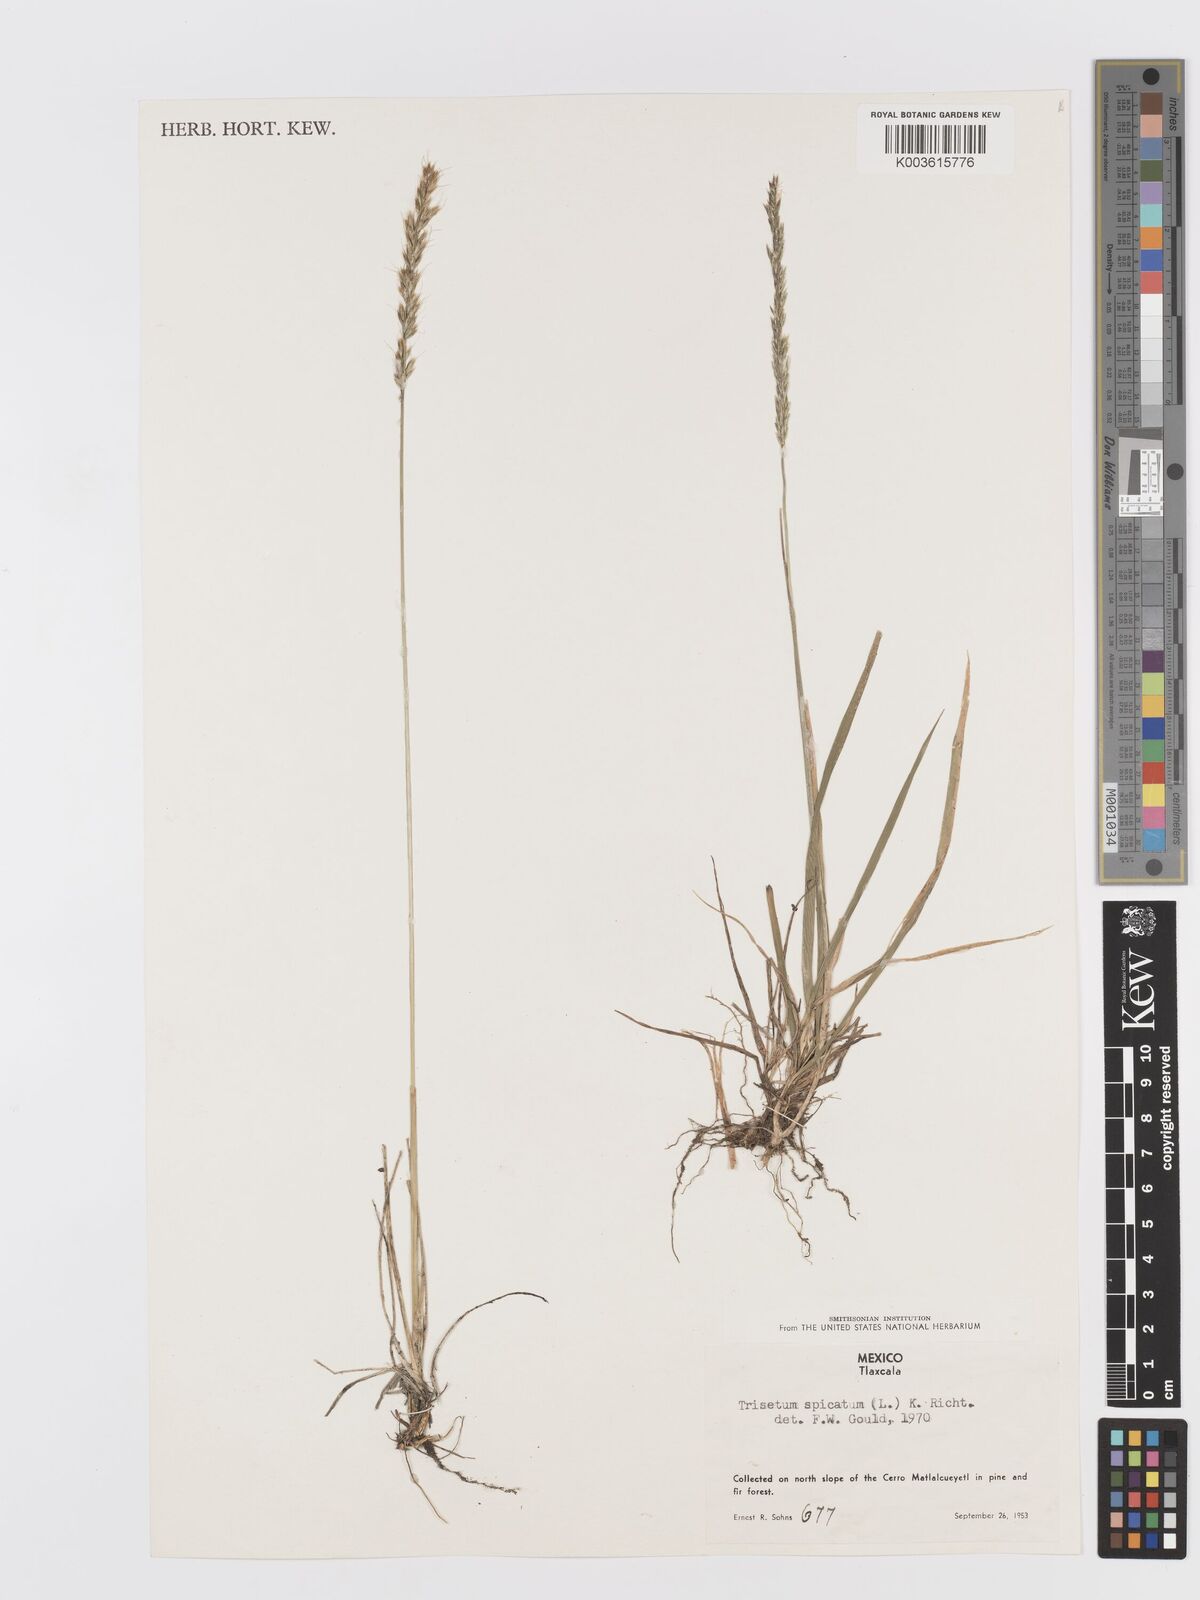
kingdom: Plantae
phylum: Tracheophyta
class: Liliopsida
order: Poales
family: Poaceae
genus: Koeleria
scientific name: Koeleria spicata
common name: Mountain trisetum
